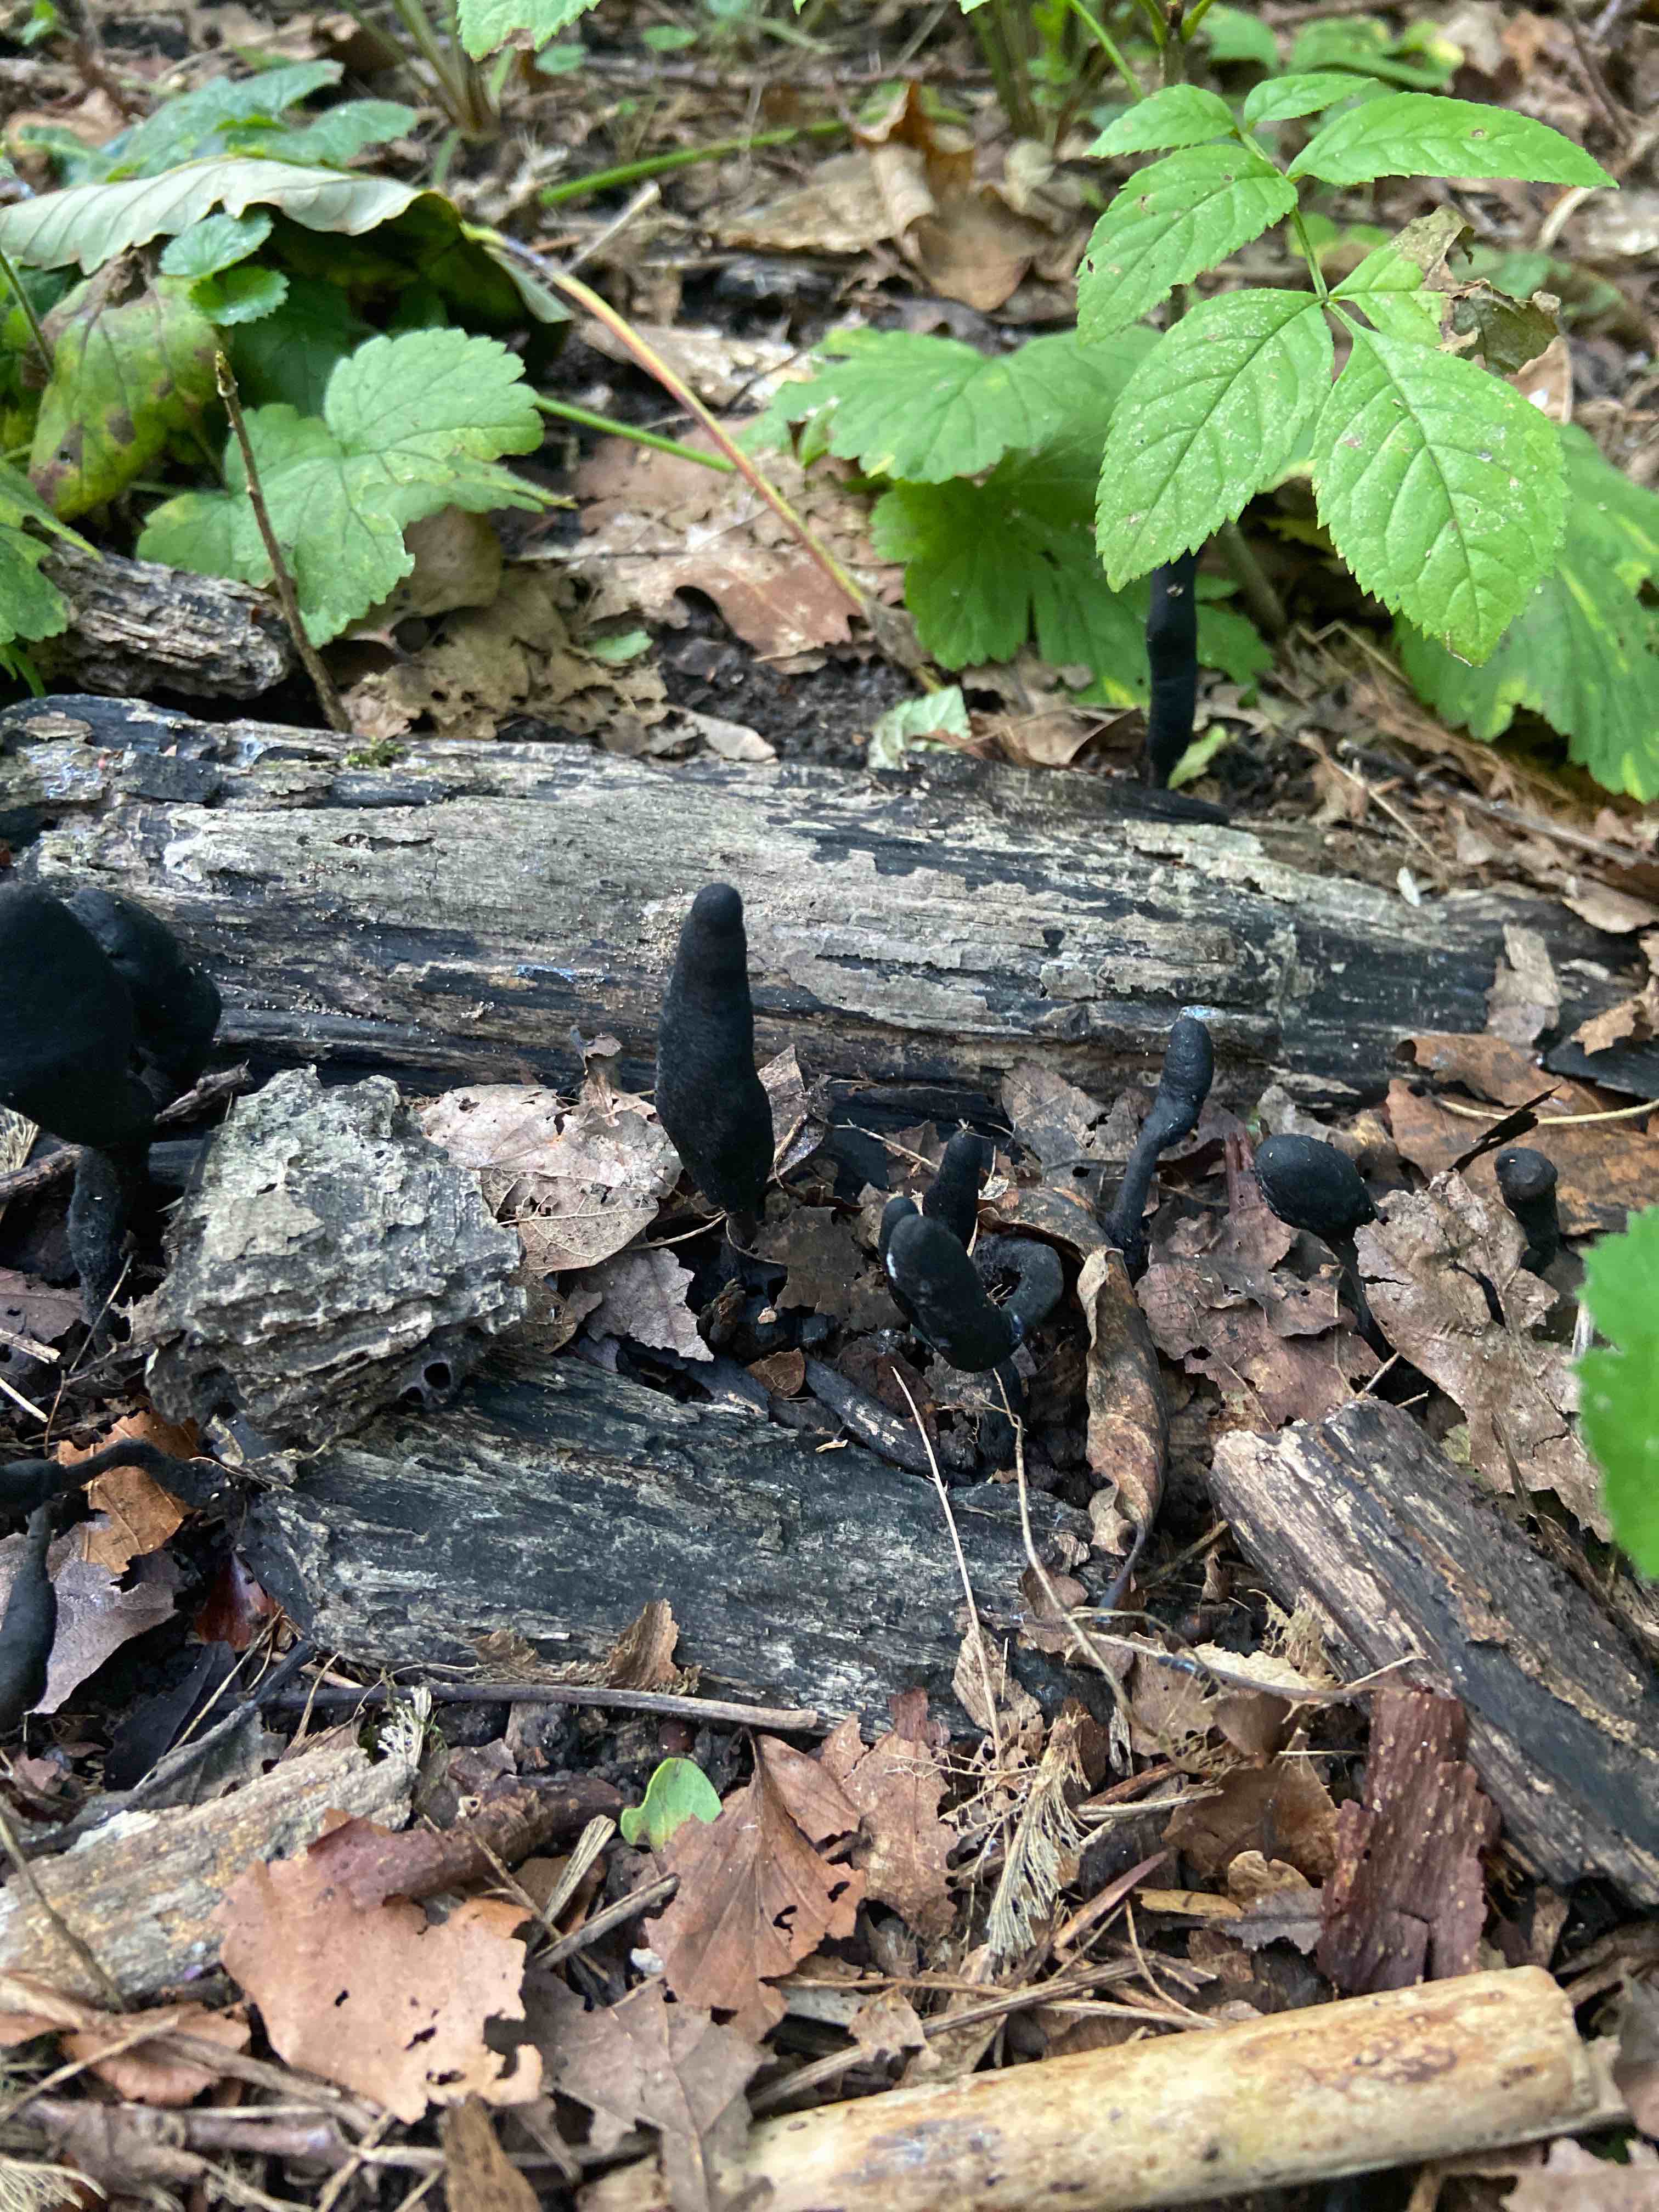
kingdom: Fungi
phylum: Ascomycota
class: Sordariomycetes
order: Xylariales
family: Xylariaceae
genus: Xylaria
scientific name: Xylaria longipes
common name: slank stødsvamp
